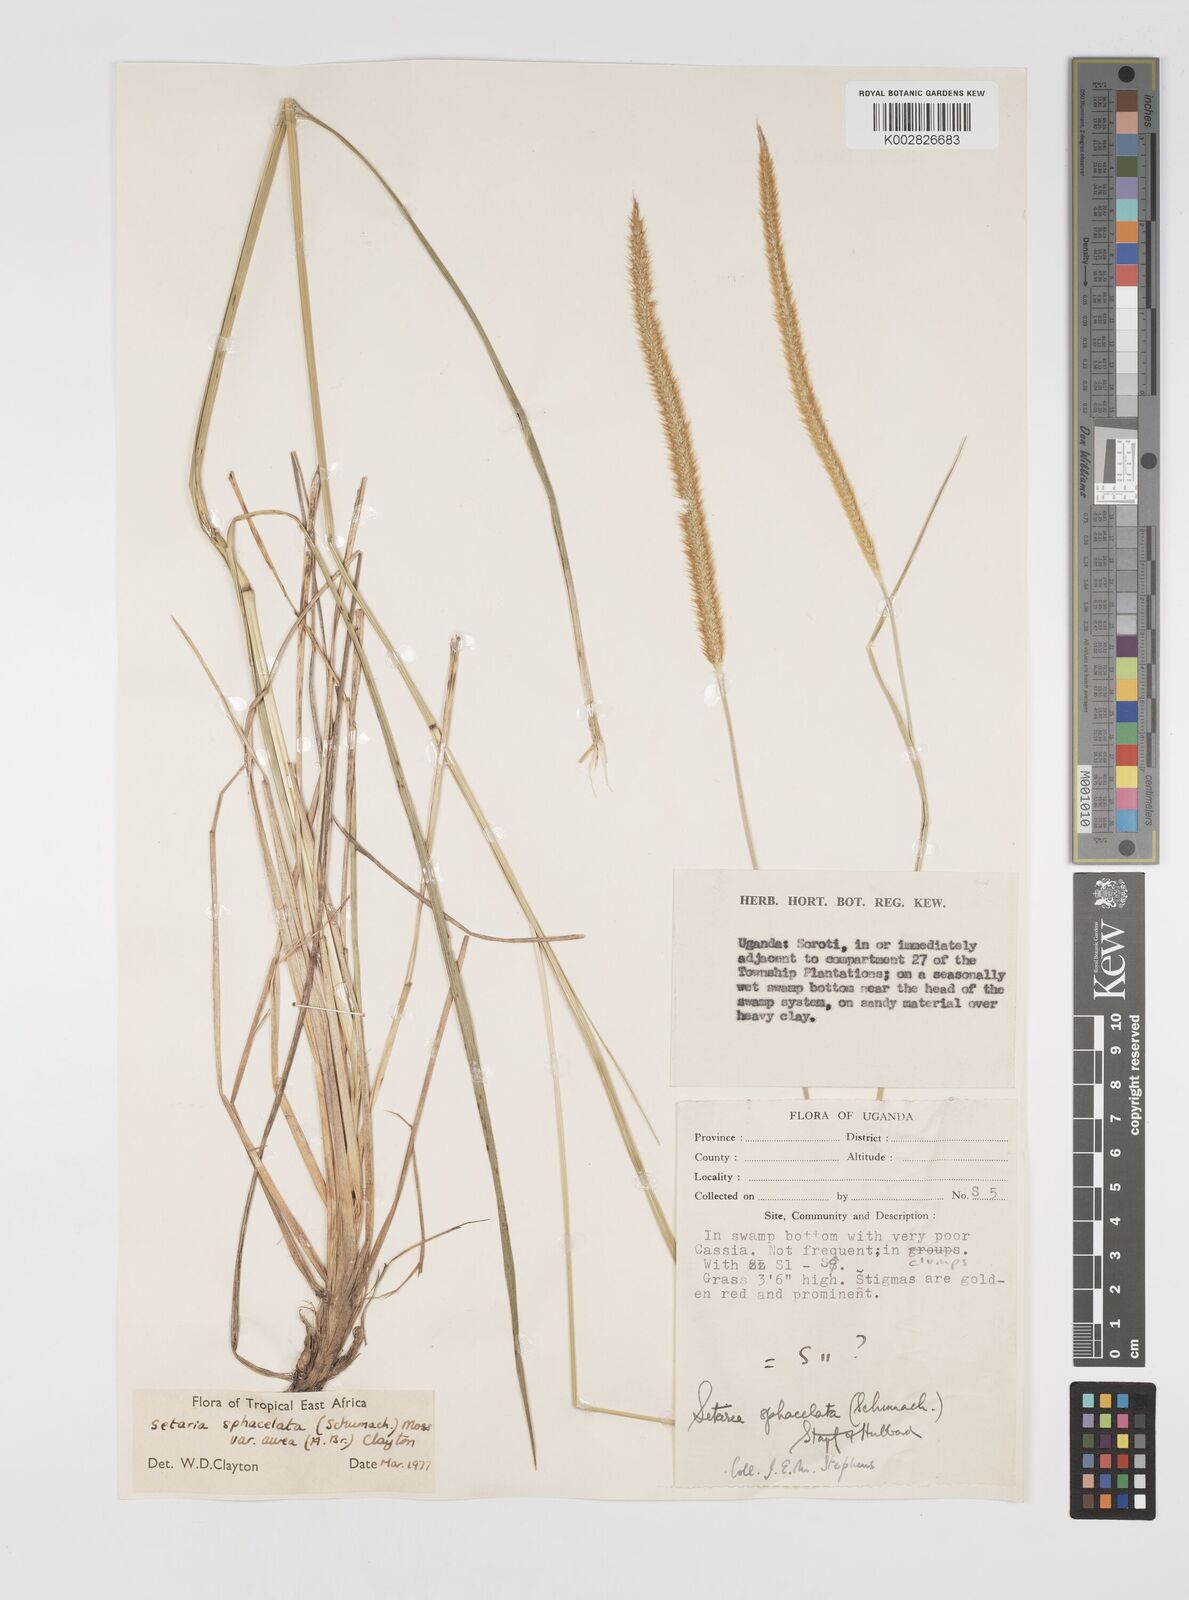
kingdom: Plantae
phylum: Tracheophyta
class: Liliopsida
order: Poales
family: Poaceae
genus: Setaria
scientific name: Setaria sphacelata
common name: African bristlegrass
